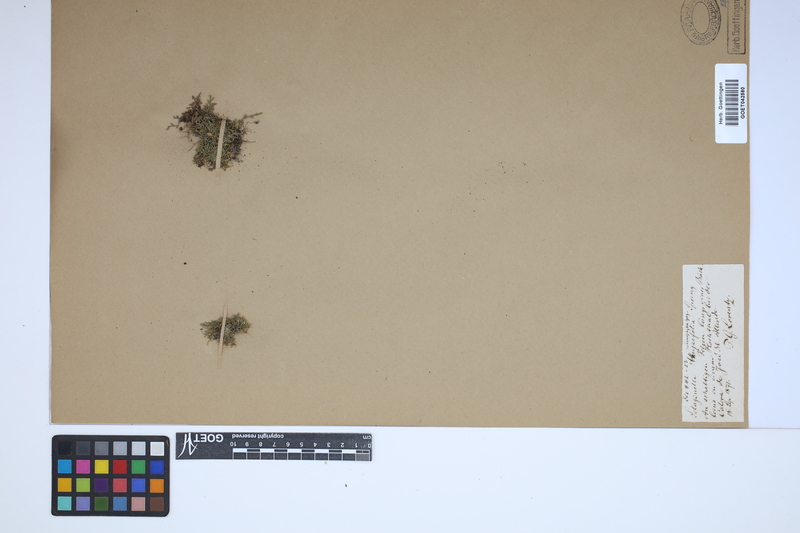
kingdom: Plantae
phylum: Tracheophyta
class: Lycopodiopsida
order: Selaginellales
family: Selaginellaceae
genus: Selaginella
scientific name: Selaginella microphylla
